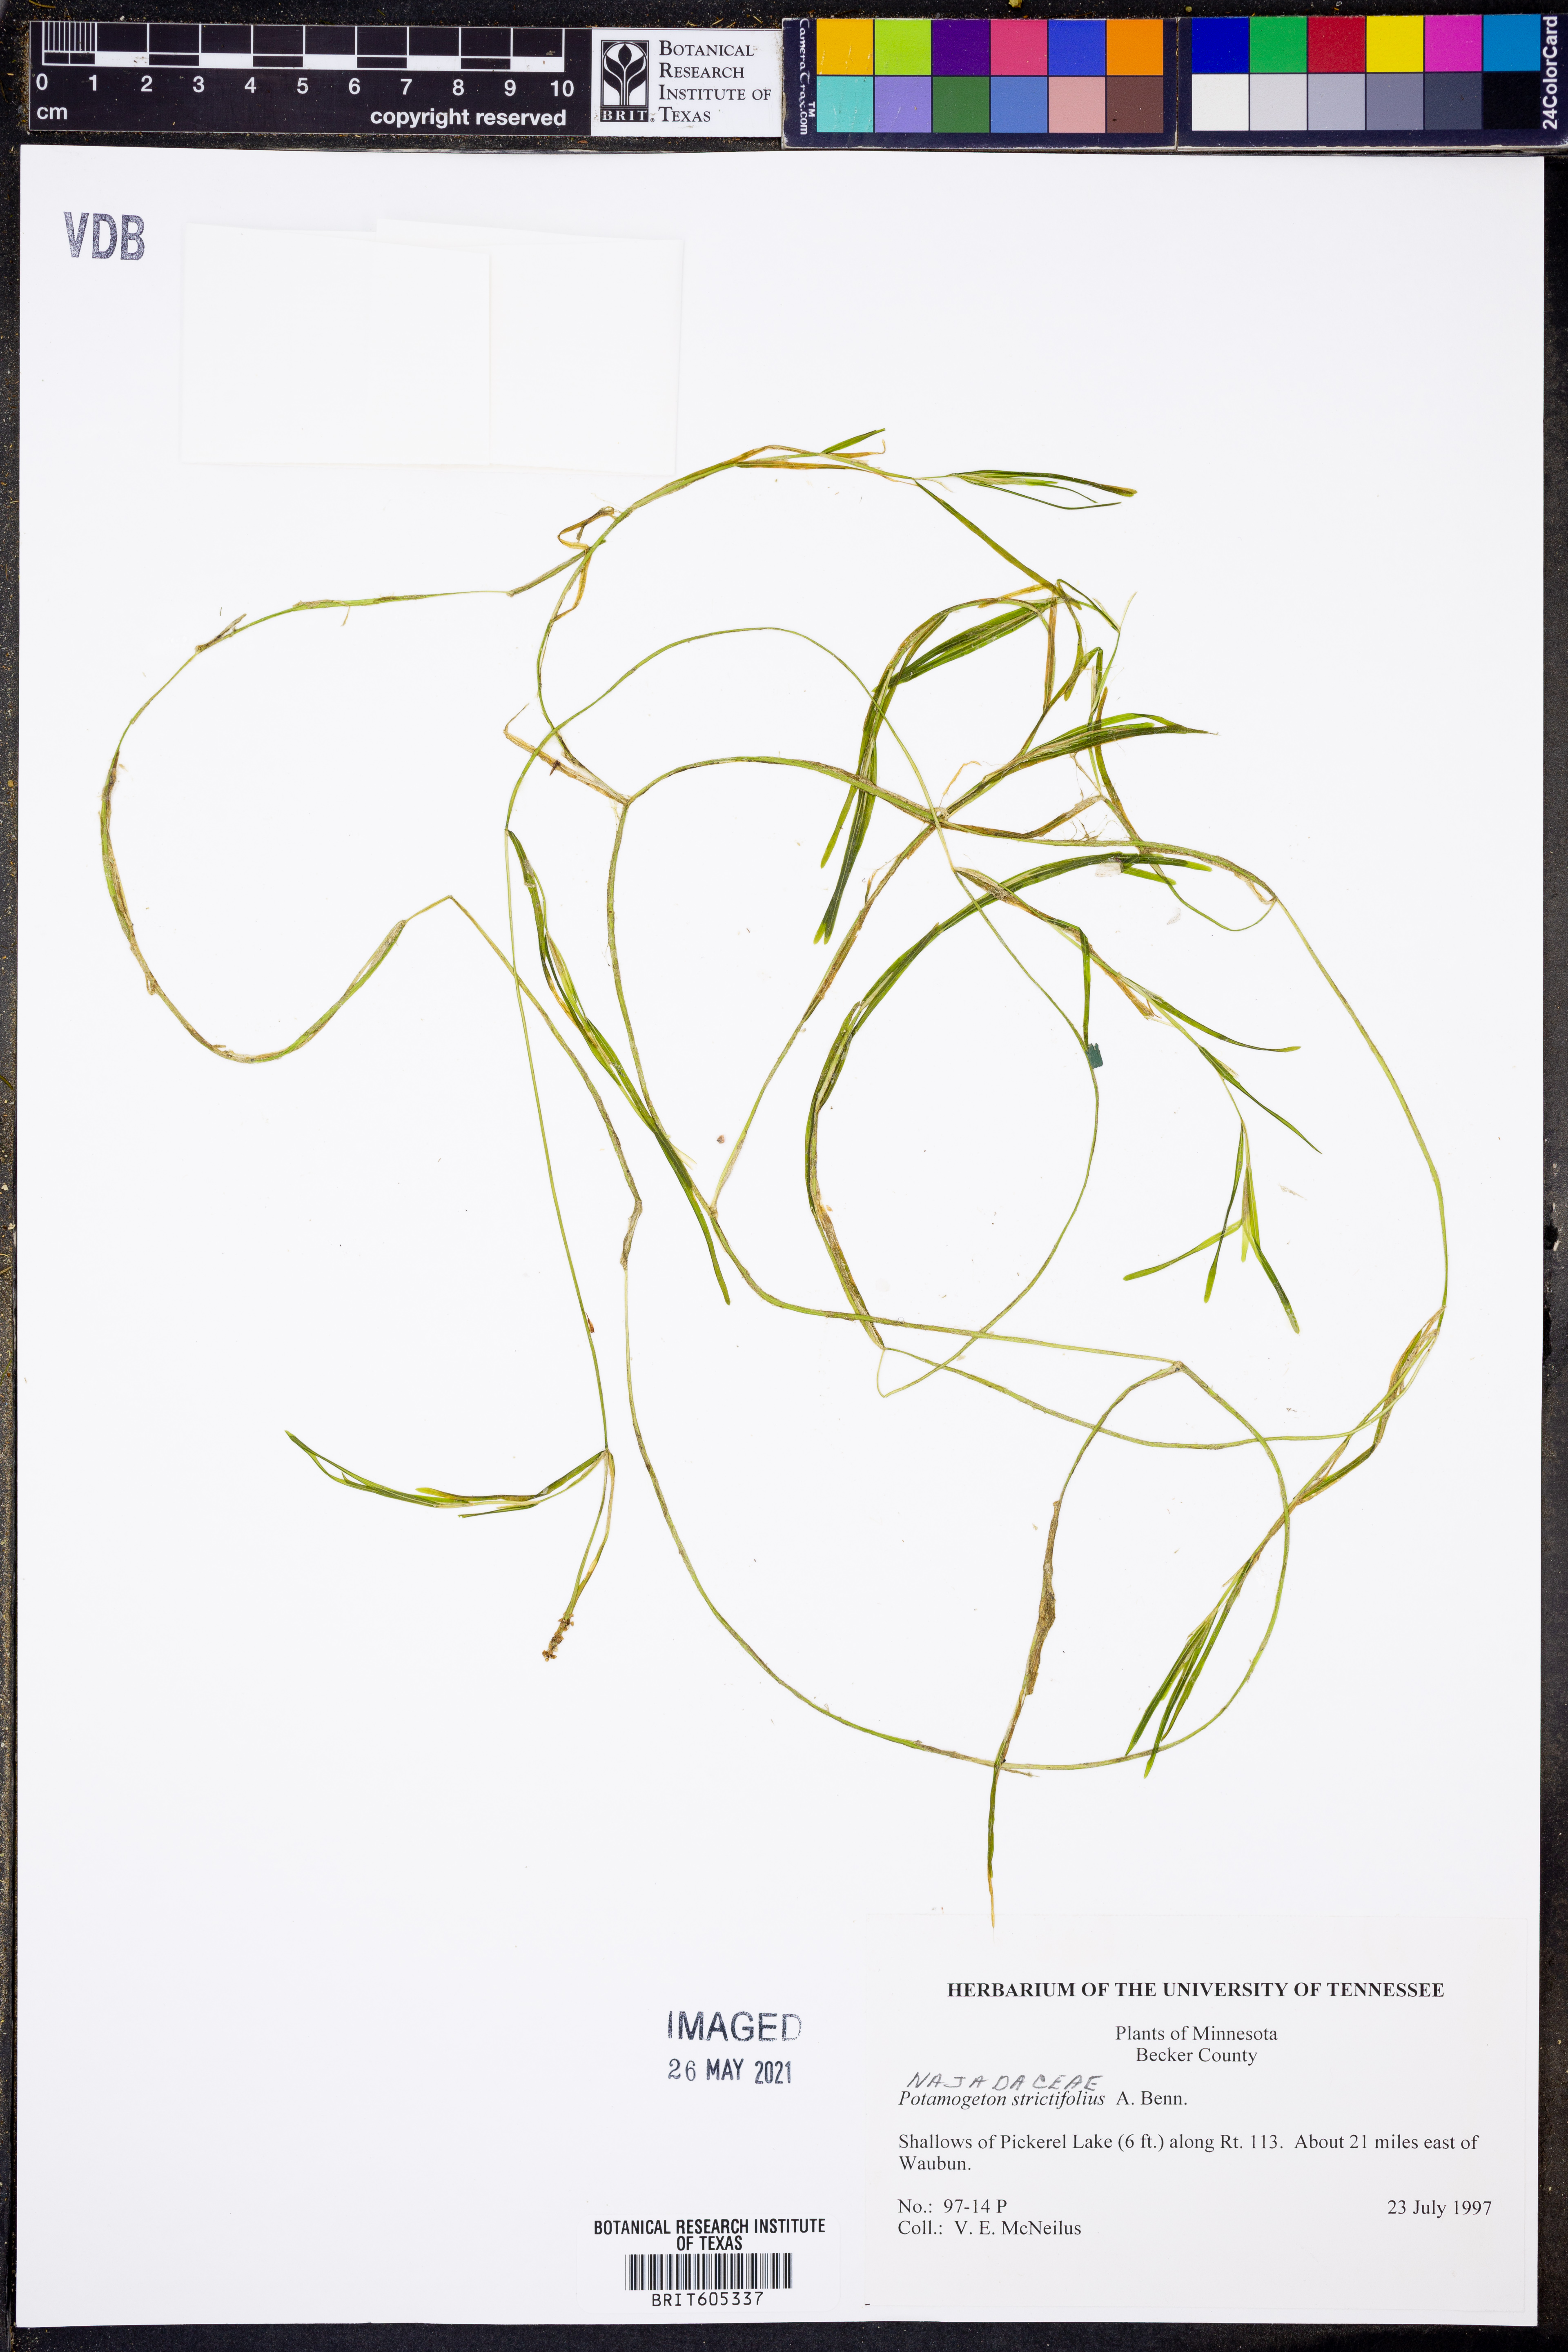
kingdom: Plantae
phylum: Tracheophyta
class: Liliopsida
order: Alismatales
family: Potamogetonaceae
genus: Potamogeton
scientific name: Potamogeton strictifolius
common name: Linear-leaved pondweed
